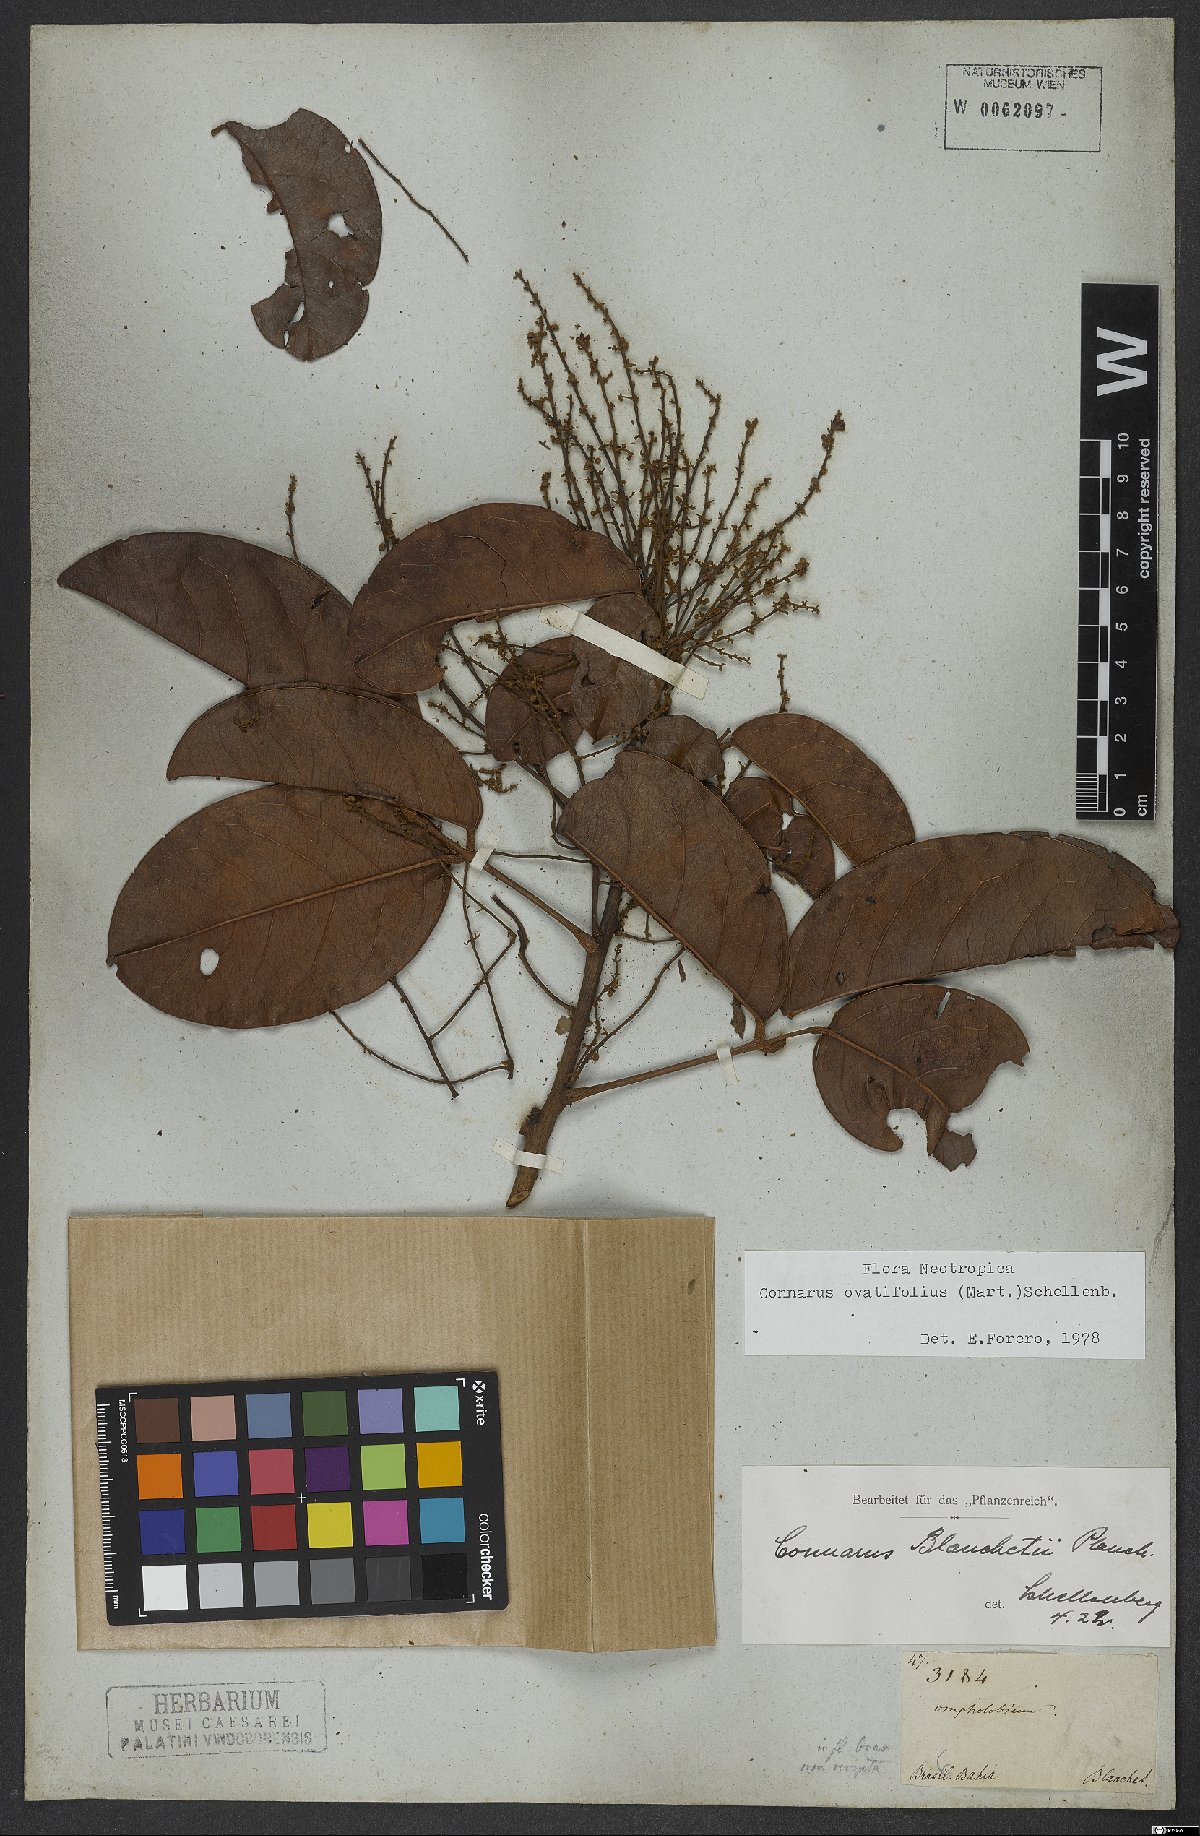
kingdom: Plantae
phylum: Tracheophyta
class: Magnoliopsida
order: Oxalidales
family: Connaraceae
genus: Connarus
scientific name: Connarus blanchetii
